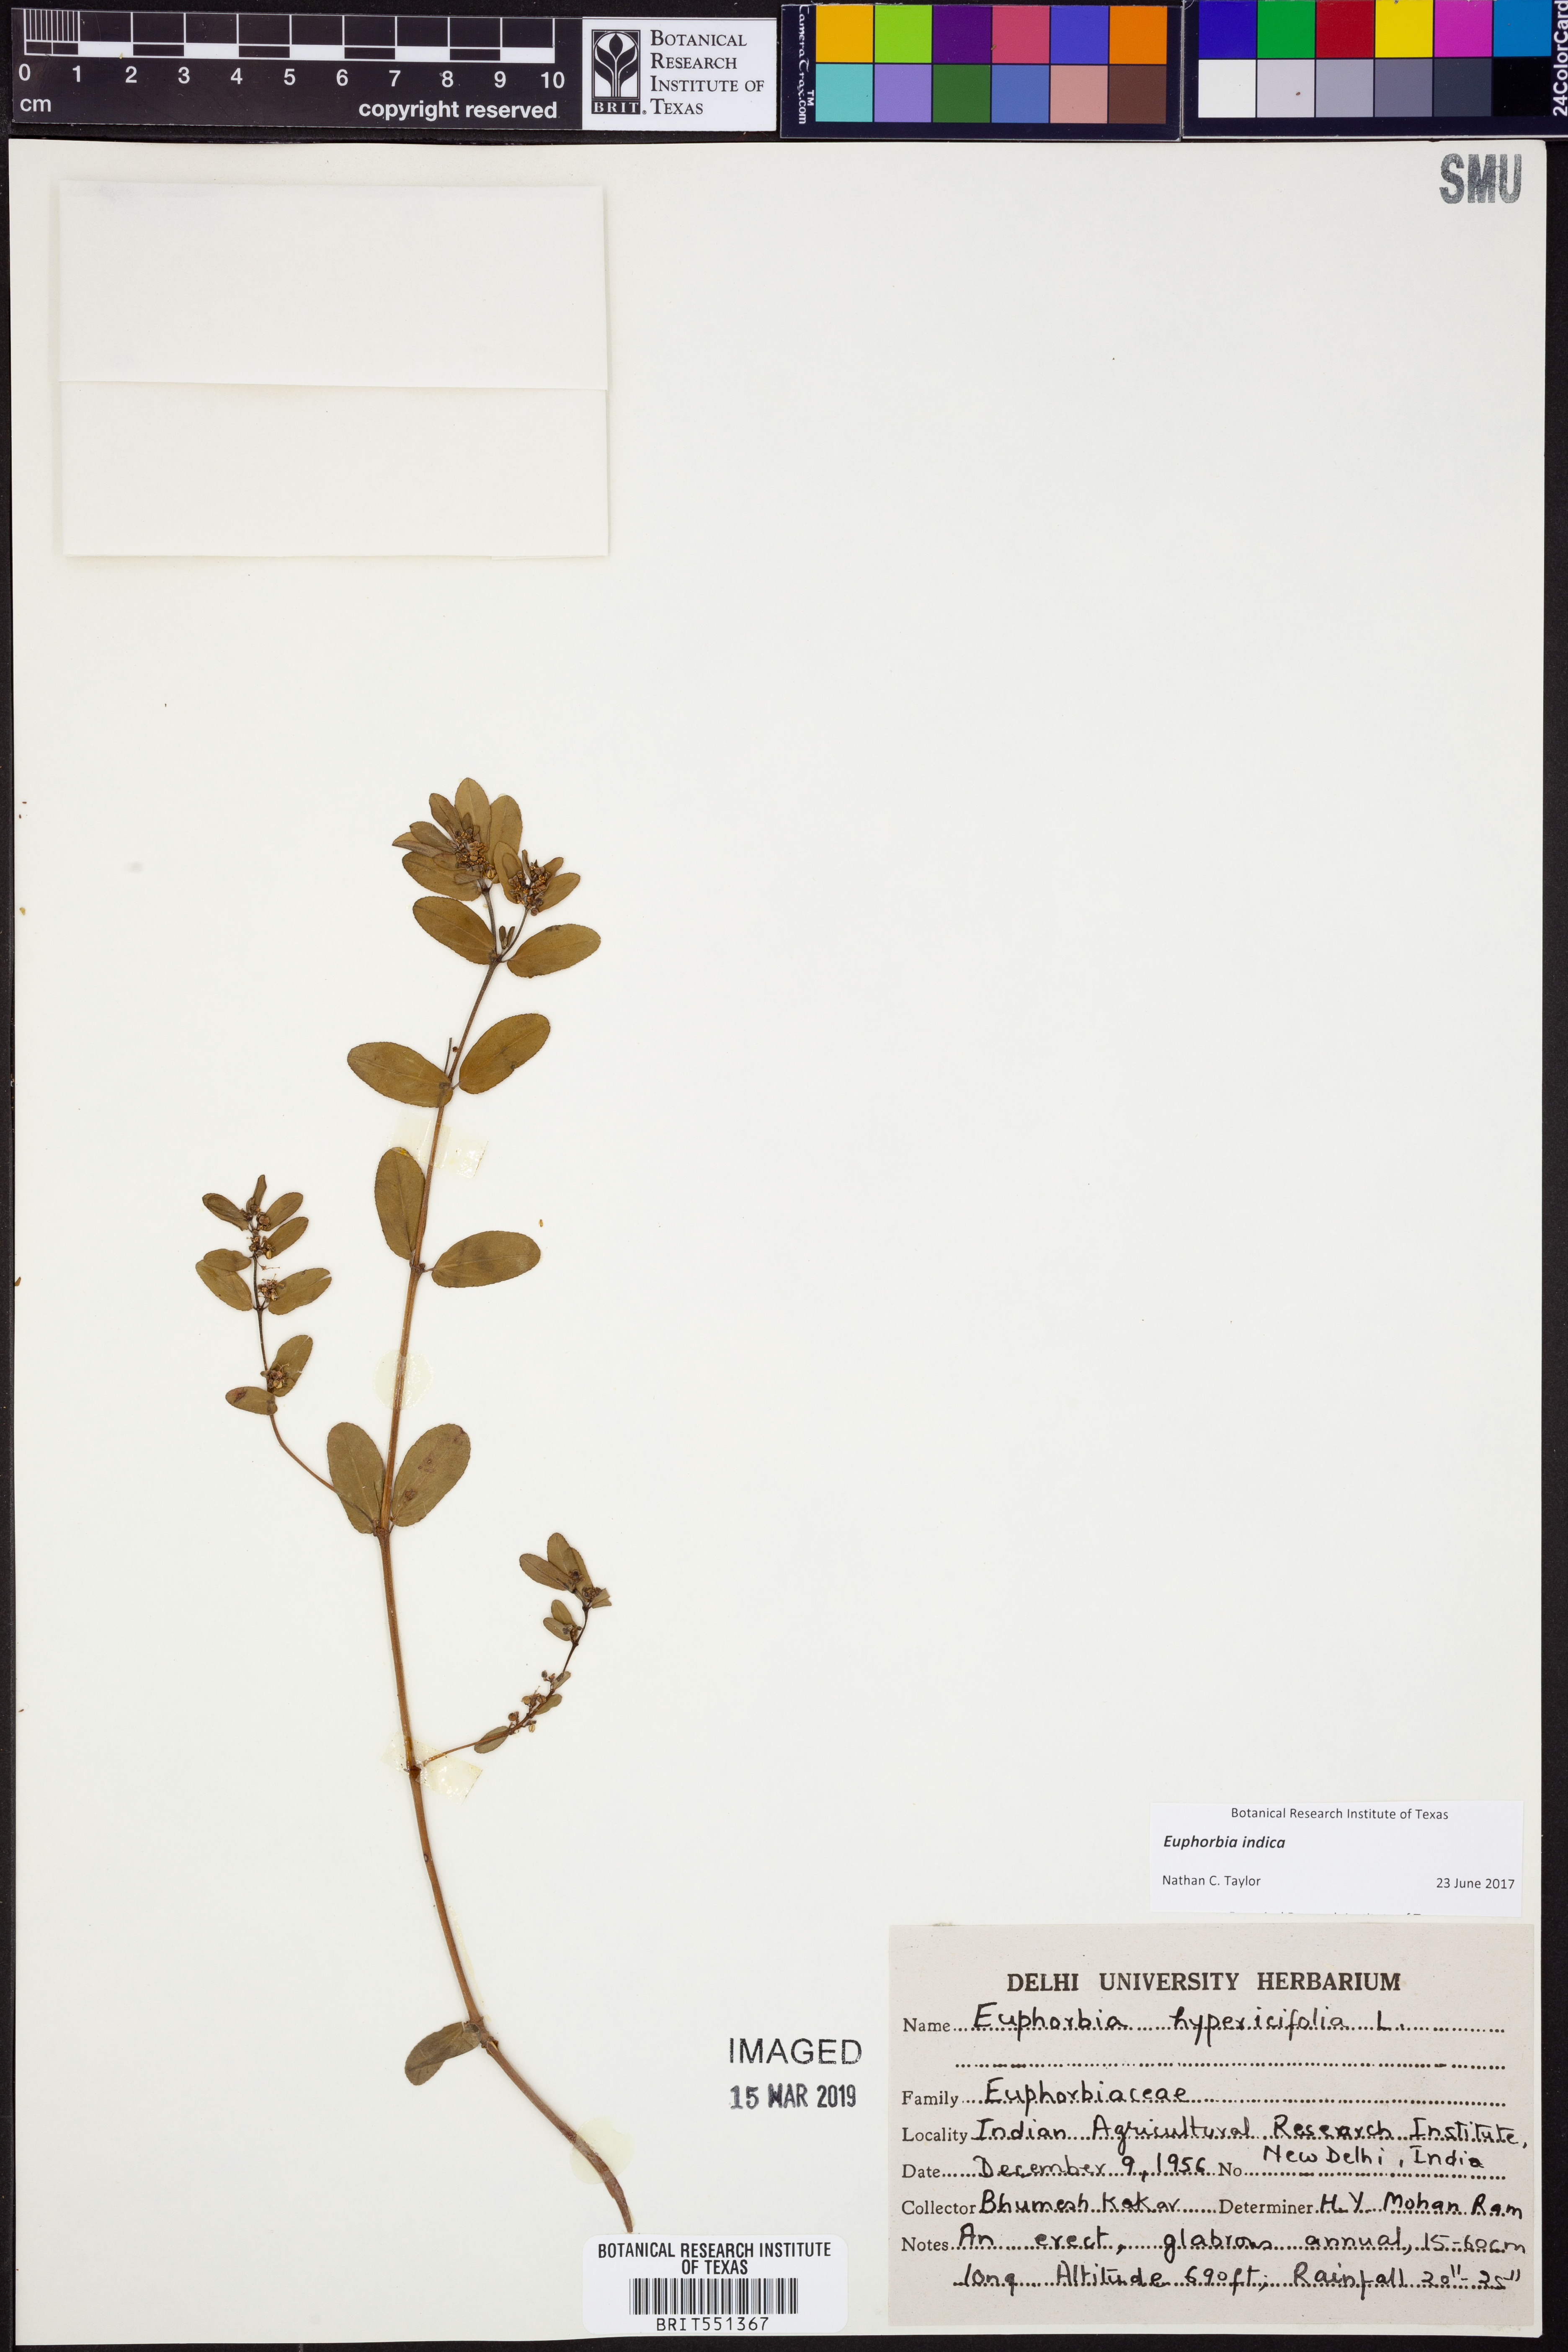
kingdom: Plantae
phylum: Tracheophyta
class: Magnoliopsida
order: Malpighiales
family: Euphorbiaceae
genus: Euphorbia
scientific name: Euphorbia indica
